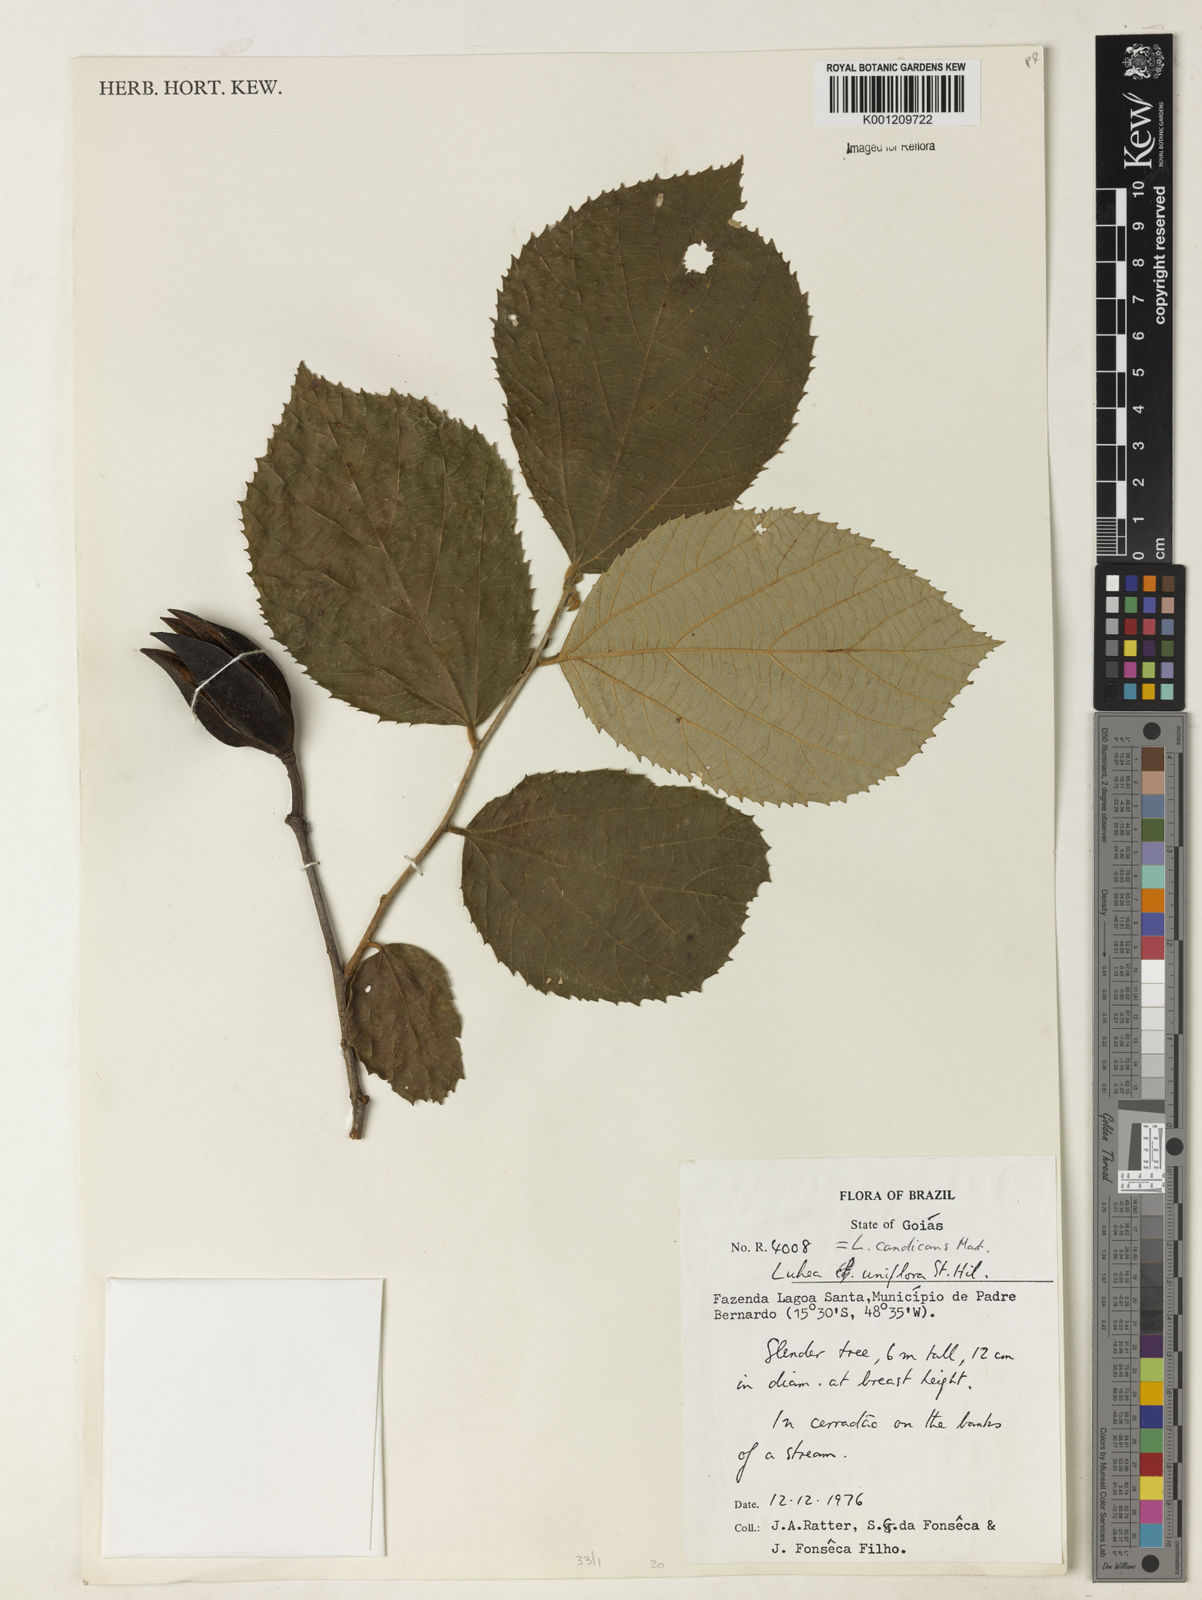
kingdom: Plantae
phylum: Tracheophyta
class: Magnoliopsida
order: Malvales
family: Malvaceae
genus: Luehea
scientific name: Luehea candicans
